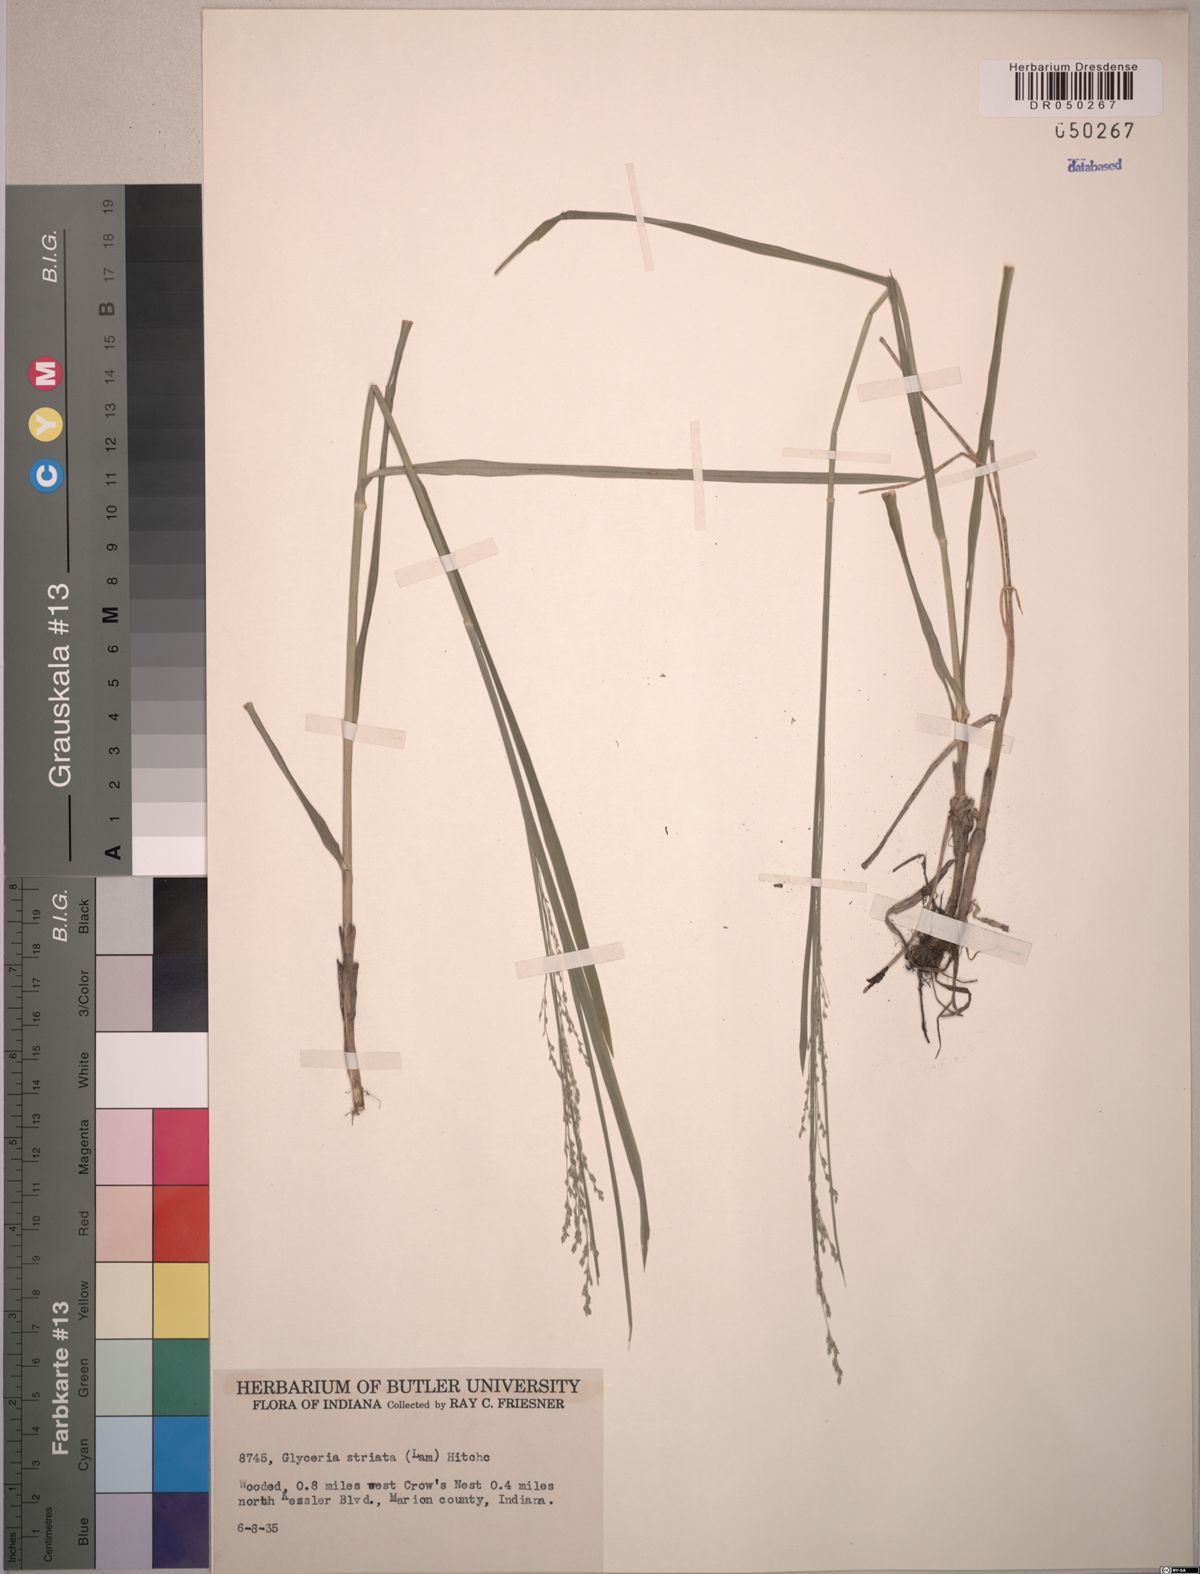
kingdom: Plantae
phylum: Tracheophyta
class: Liliopsida
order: Poales
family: Poaceae
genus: Glyceria
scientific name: Glyceria striata
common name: Fowl manna grass
